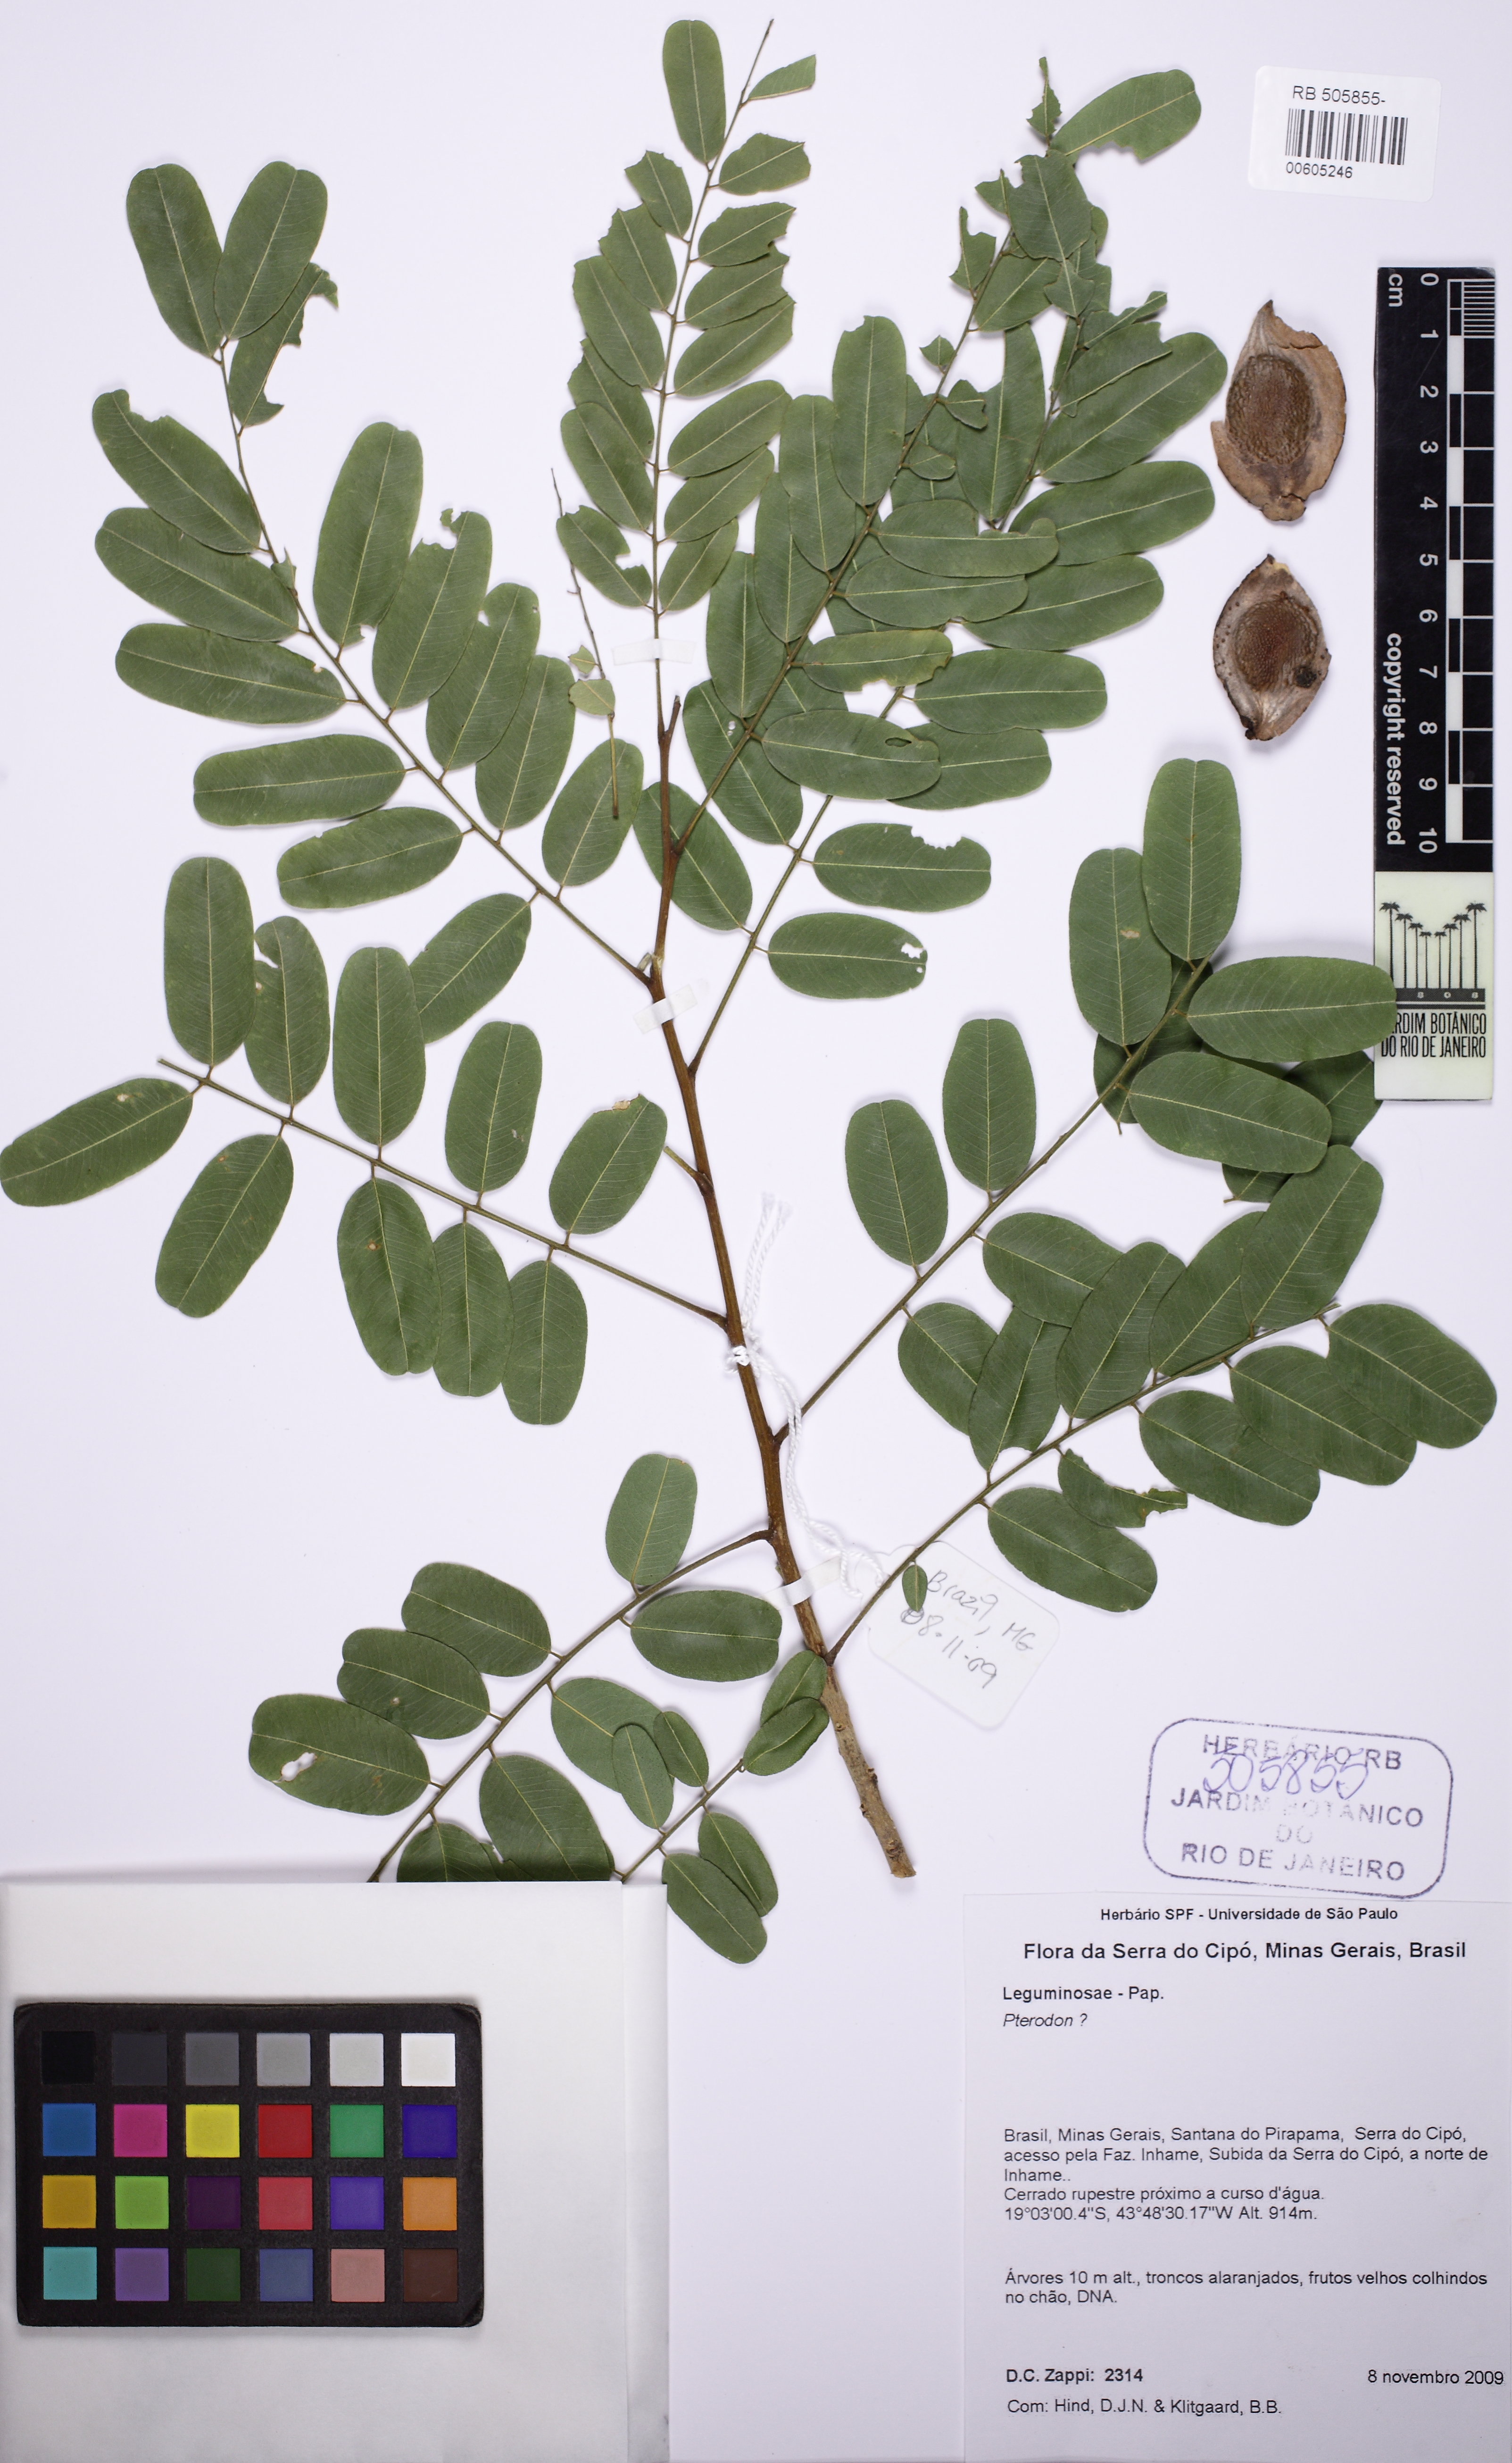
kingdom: Plantae
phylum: Tracheophyta
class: Magnoliopsida
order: Fabales
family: Fabaceae
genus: Pterodon
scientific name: Pterodon
